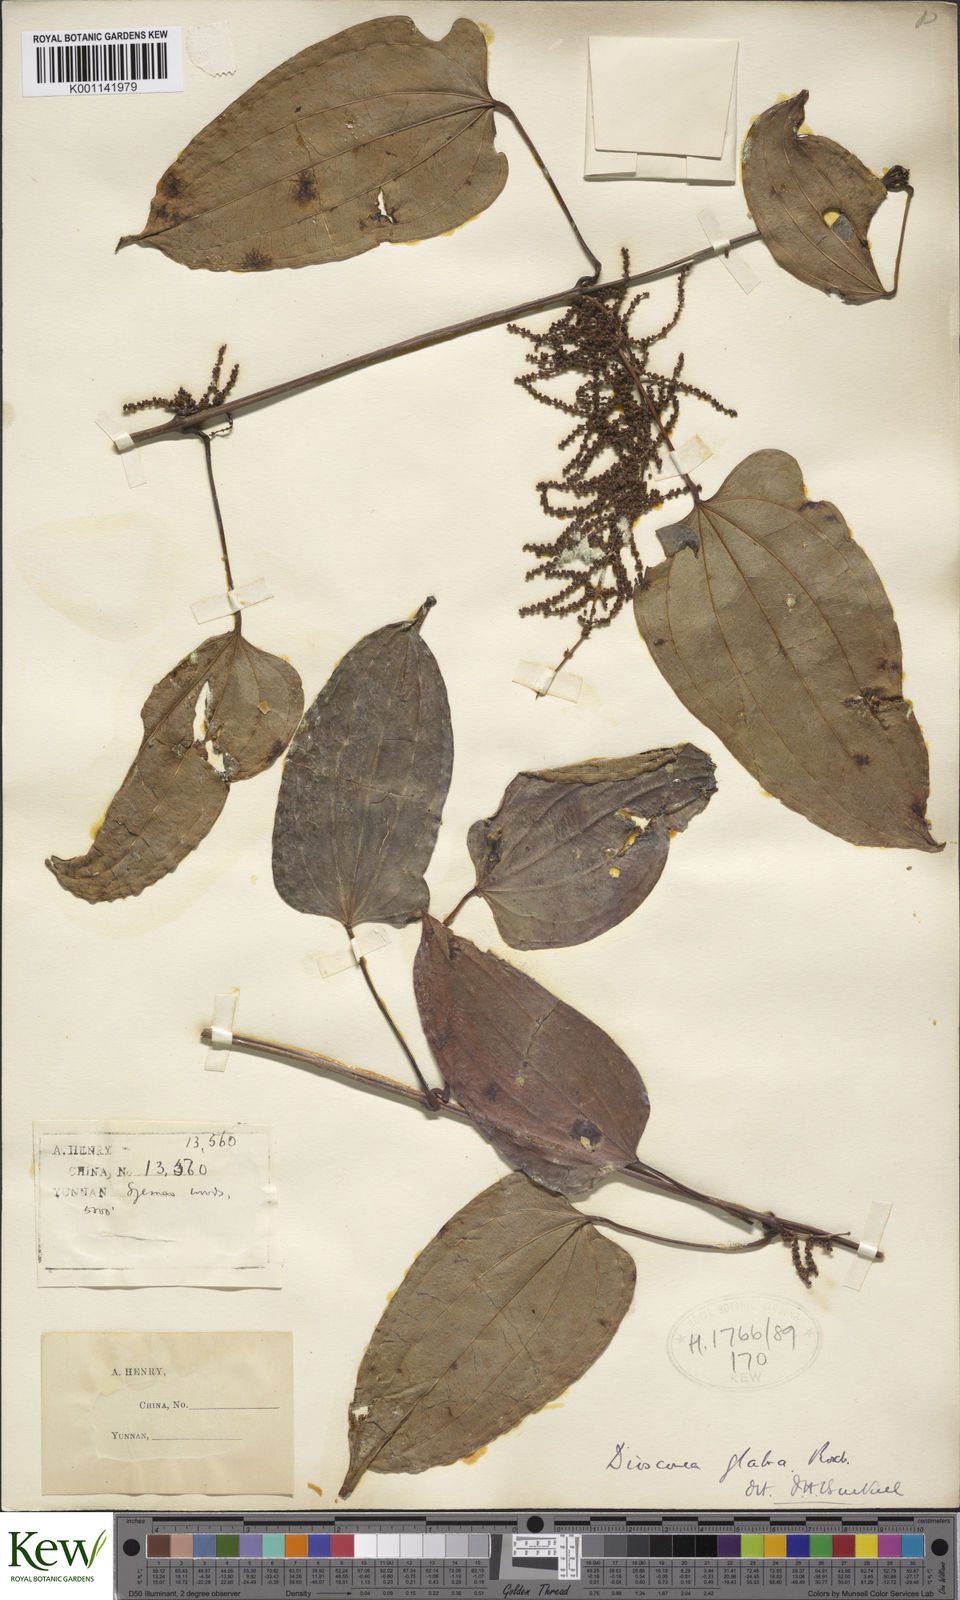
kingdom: Plantae
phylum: Tracheophyta
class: Liliopsida
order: Dioscoreales
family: Dioscoreaceae
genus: Dioscorea
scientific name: Dioscorea glabra
